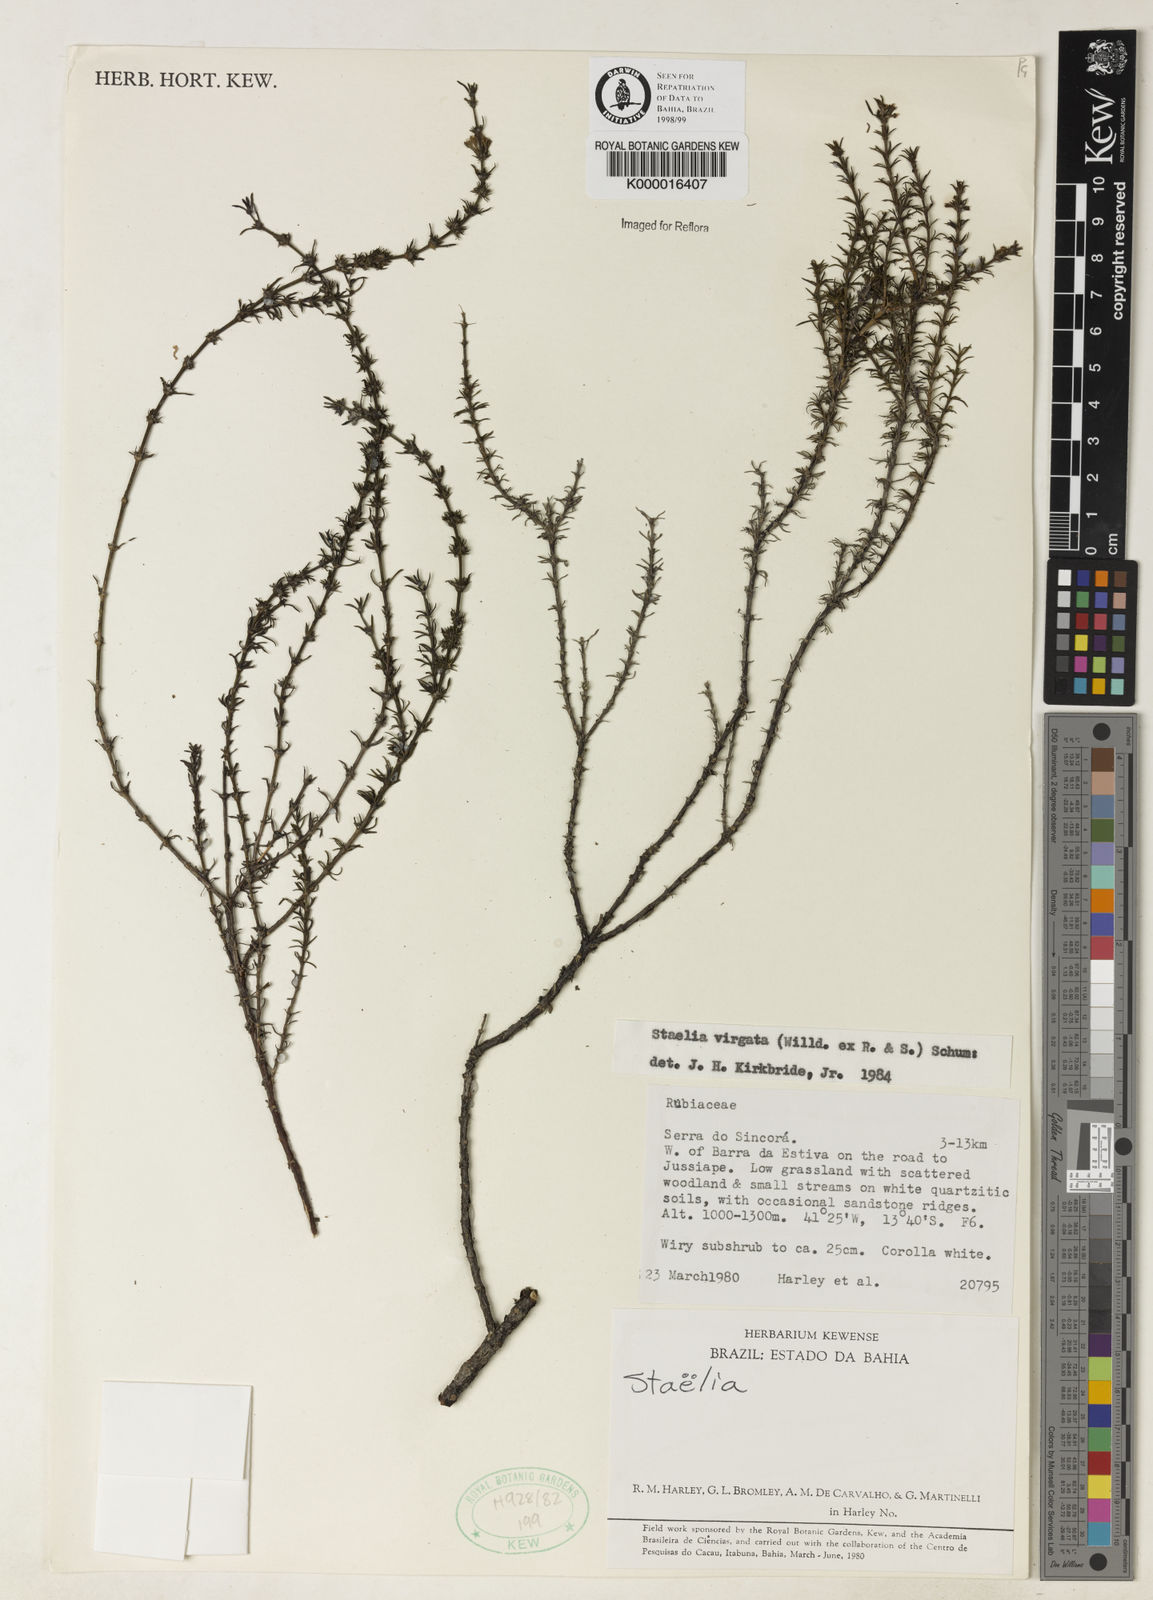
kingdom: Plantae
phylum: Tracheophyta
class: Magnoliopsida
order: Gentianales
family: Rubiaceae
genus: Staelia
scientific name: Staelia virgata
